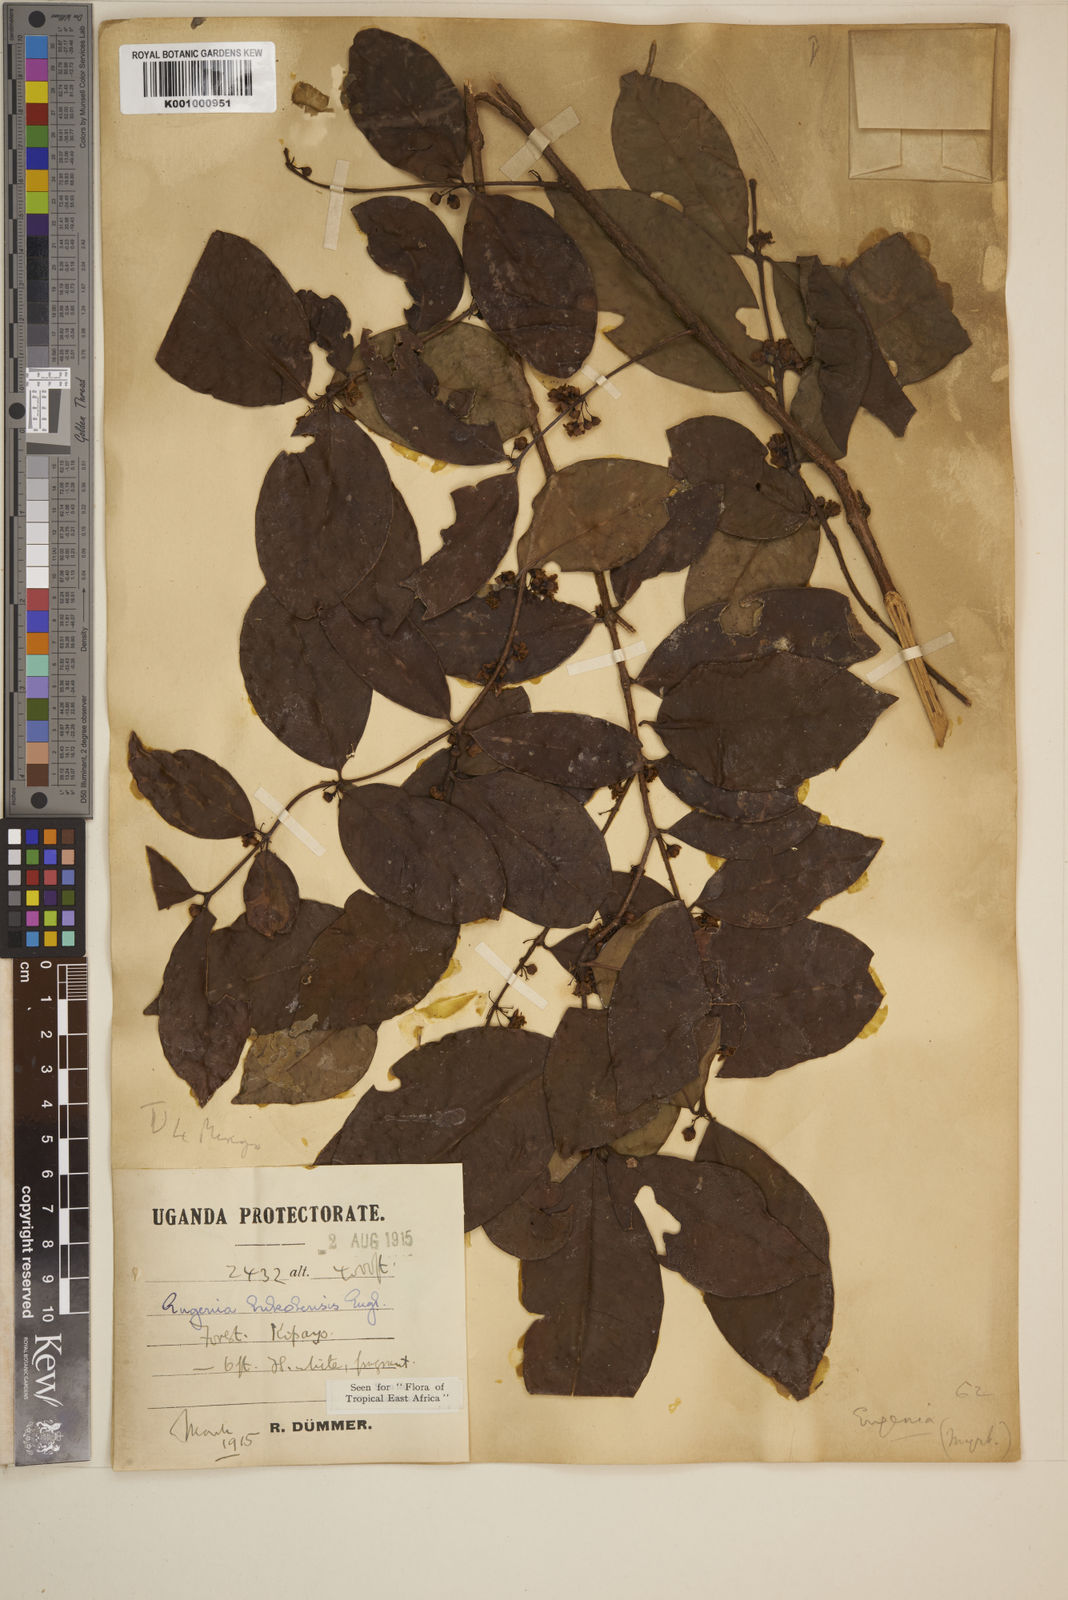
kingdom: Plantae
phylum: Tracheophyta
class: Magnoliopsida
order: Myrtales
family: Myrtaceae
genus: Eugenia
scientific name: Eugenia bukobensis
